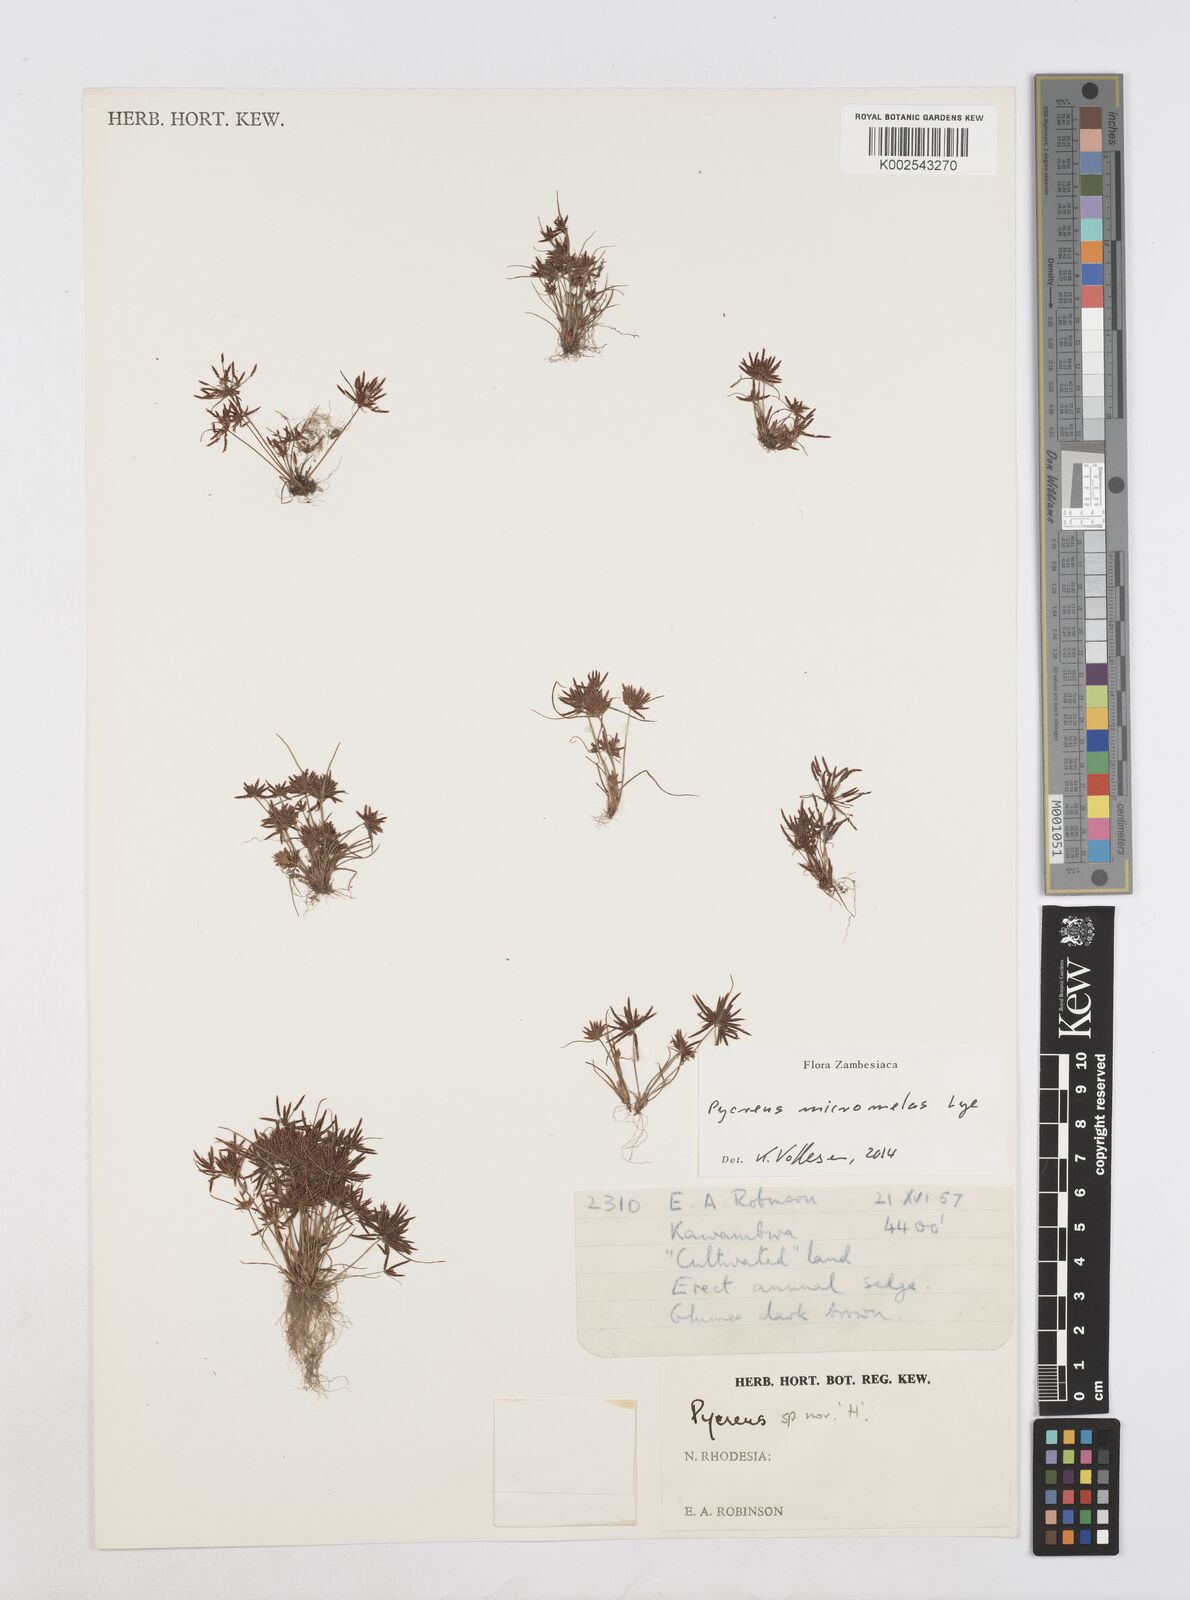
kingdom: Plantae
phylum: Tracheophyta
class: Liliopsida
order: Poales
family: Cyperaceae
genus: Cyperus
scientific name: Cyperus micromelas
